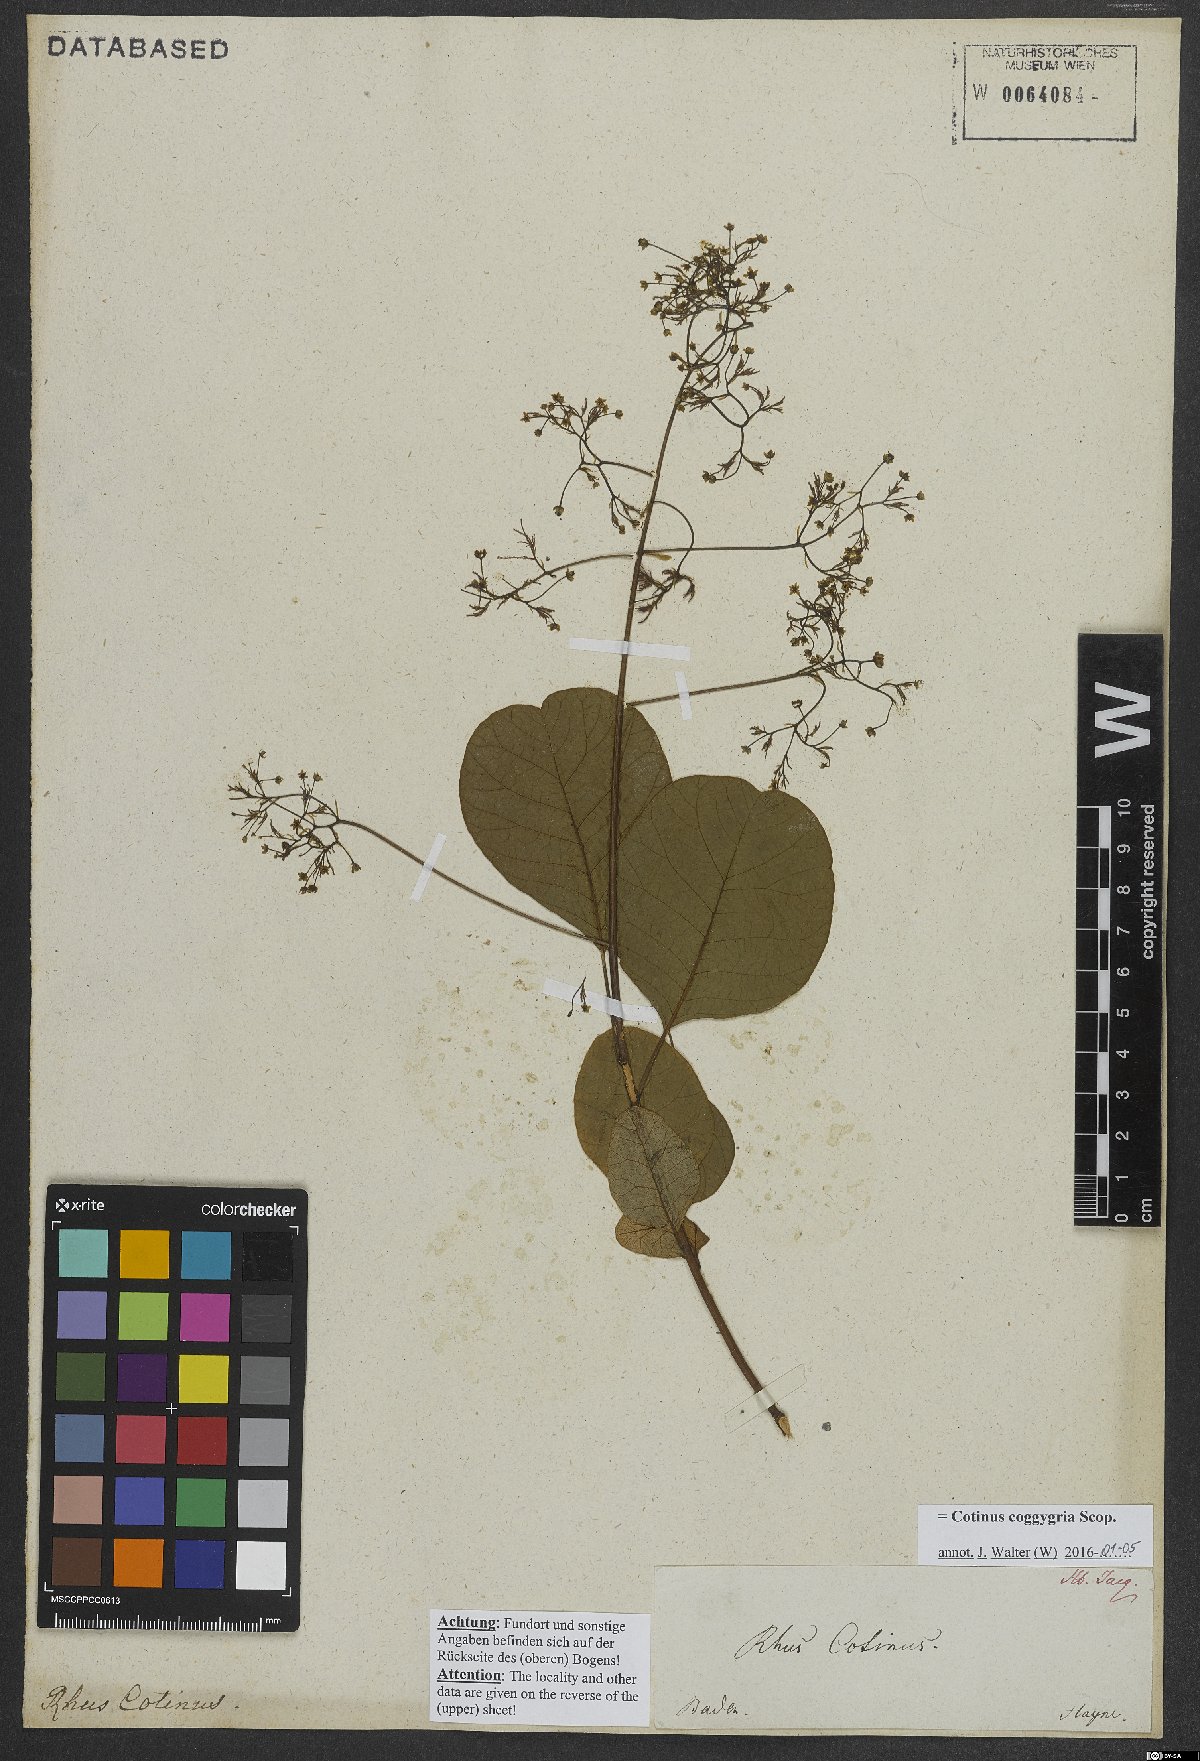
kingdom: Plantae
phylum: Tracheophyta
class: Magnoliopsida
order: Sapindales
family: Anacardiaceae
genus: Cotinus
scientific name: Cotinus coggygria
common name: Smoke-tree
